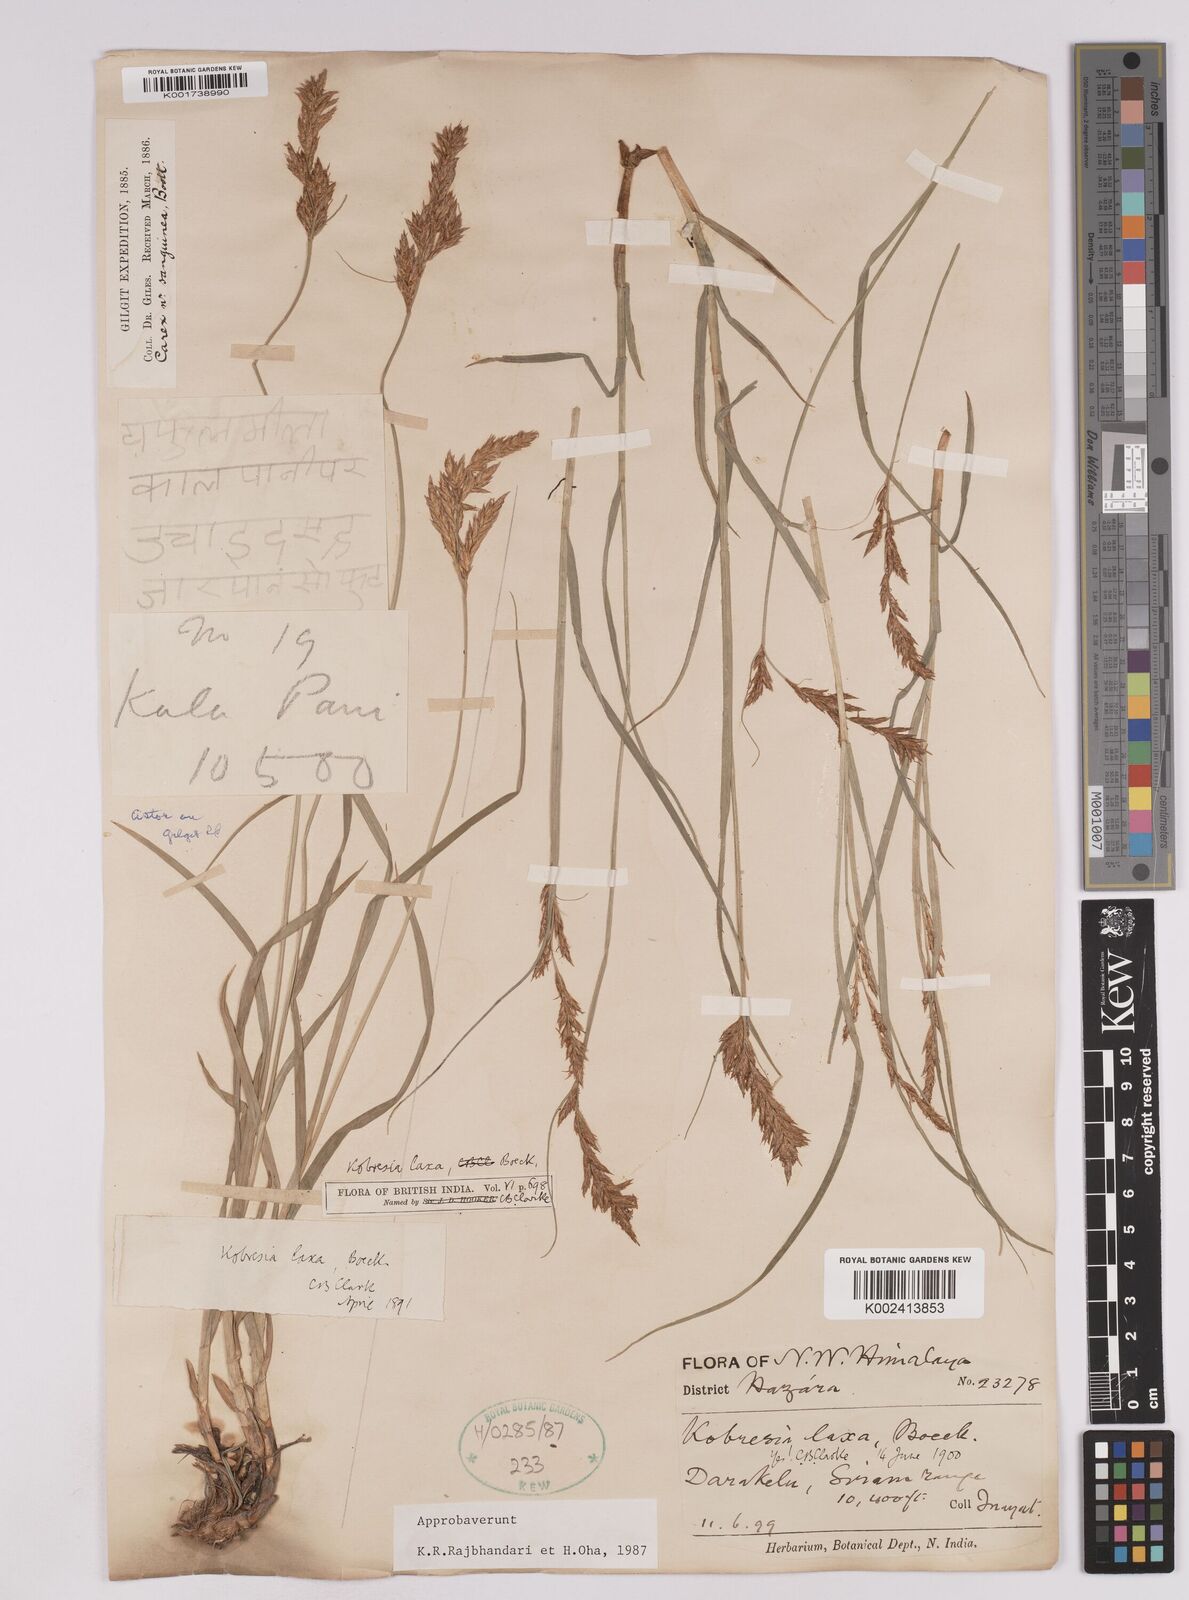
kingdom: Plantae
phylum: Tracheophyta
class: Liliopsida
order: Poales
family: Cyperaceae
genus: Carex
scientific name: Carex pseudolaxa
